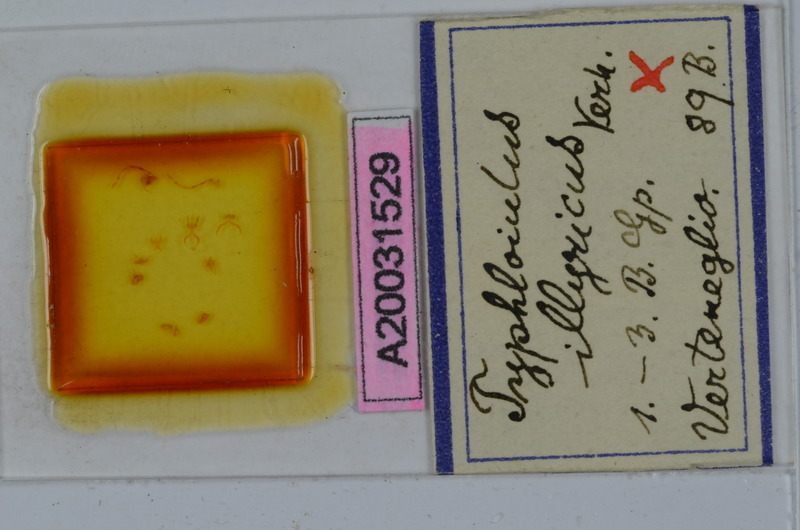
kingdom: Animalia
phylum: Arthropoda
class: Diplopoda
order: Julida
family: Julidae
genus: Typhloiulus
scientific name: Typhloiulus illyricus
